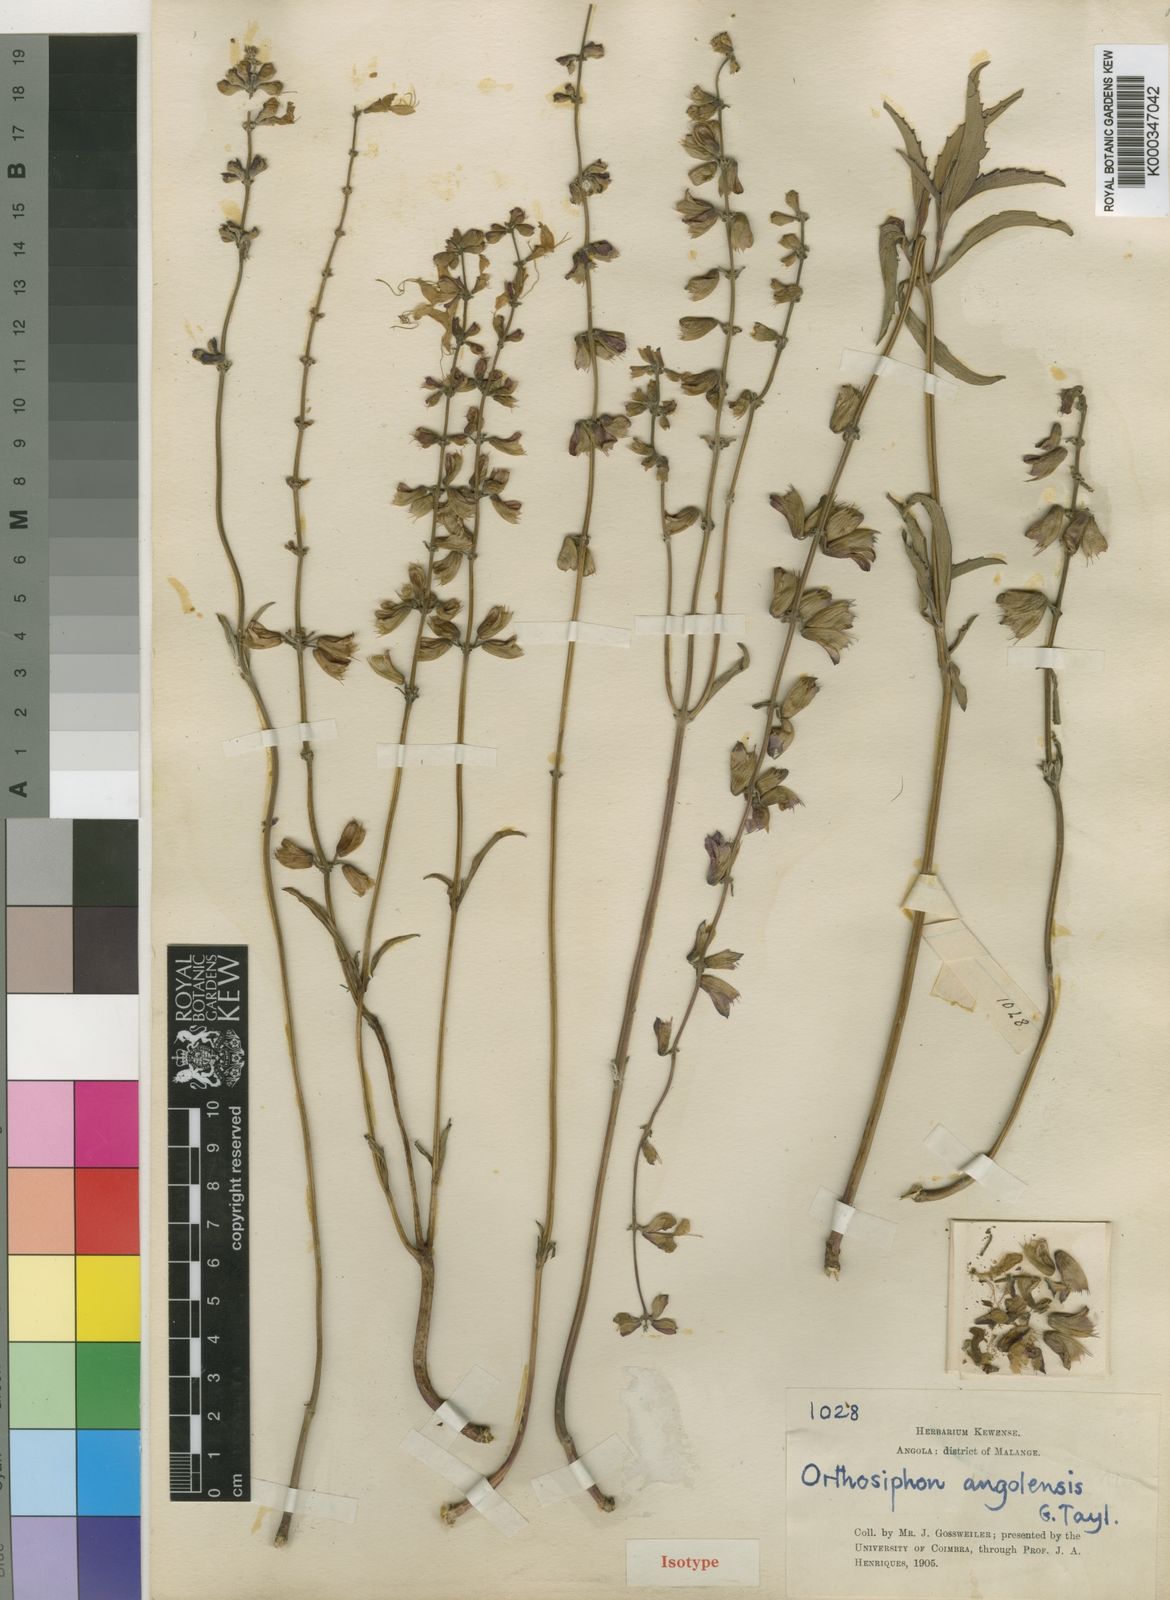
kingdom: Plantae
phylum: Tracheophyta
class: Magnoliopsida
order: Lamiales
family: Lamiaceae
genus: Ocimum
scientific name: Ocimum fimbriatum
